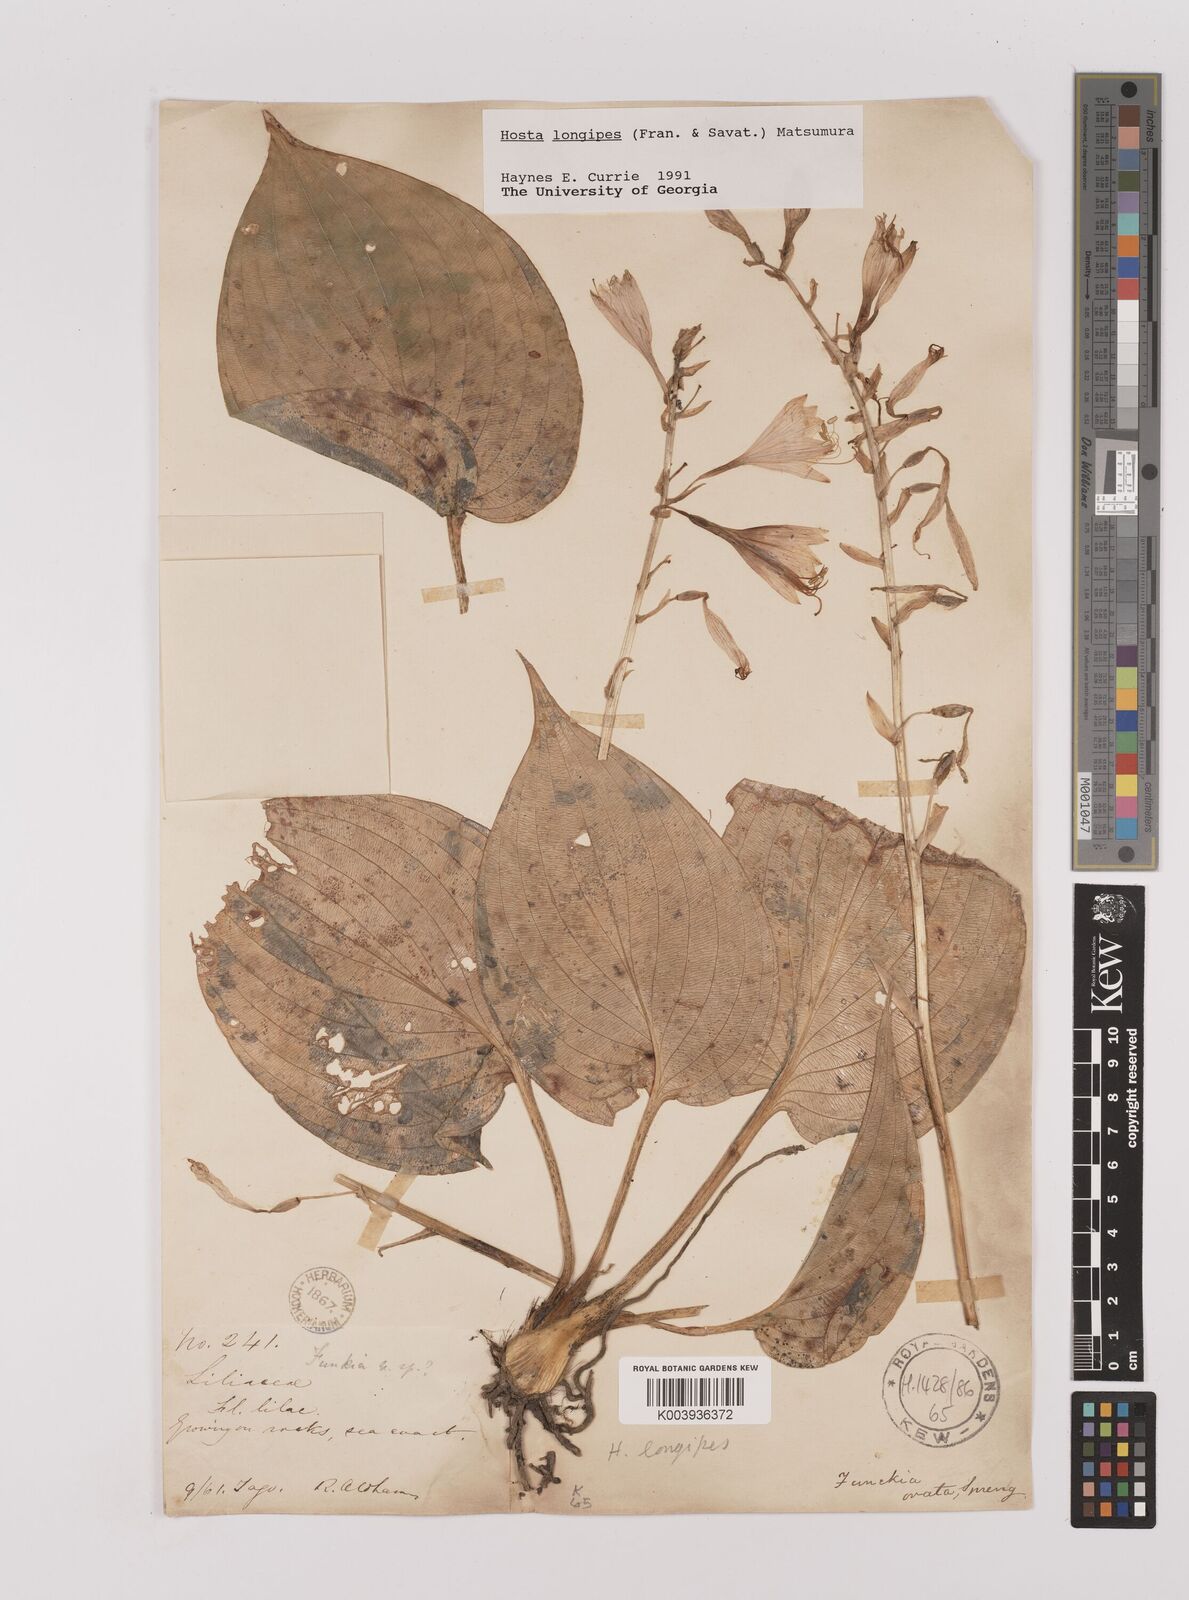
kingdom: Plantae
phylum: Tracheophyta
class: Liliopsida
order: Asparagales
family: Asparagaceae
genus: Hosta
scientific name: Hosta
